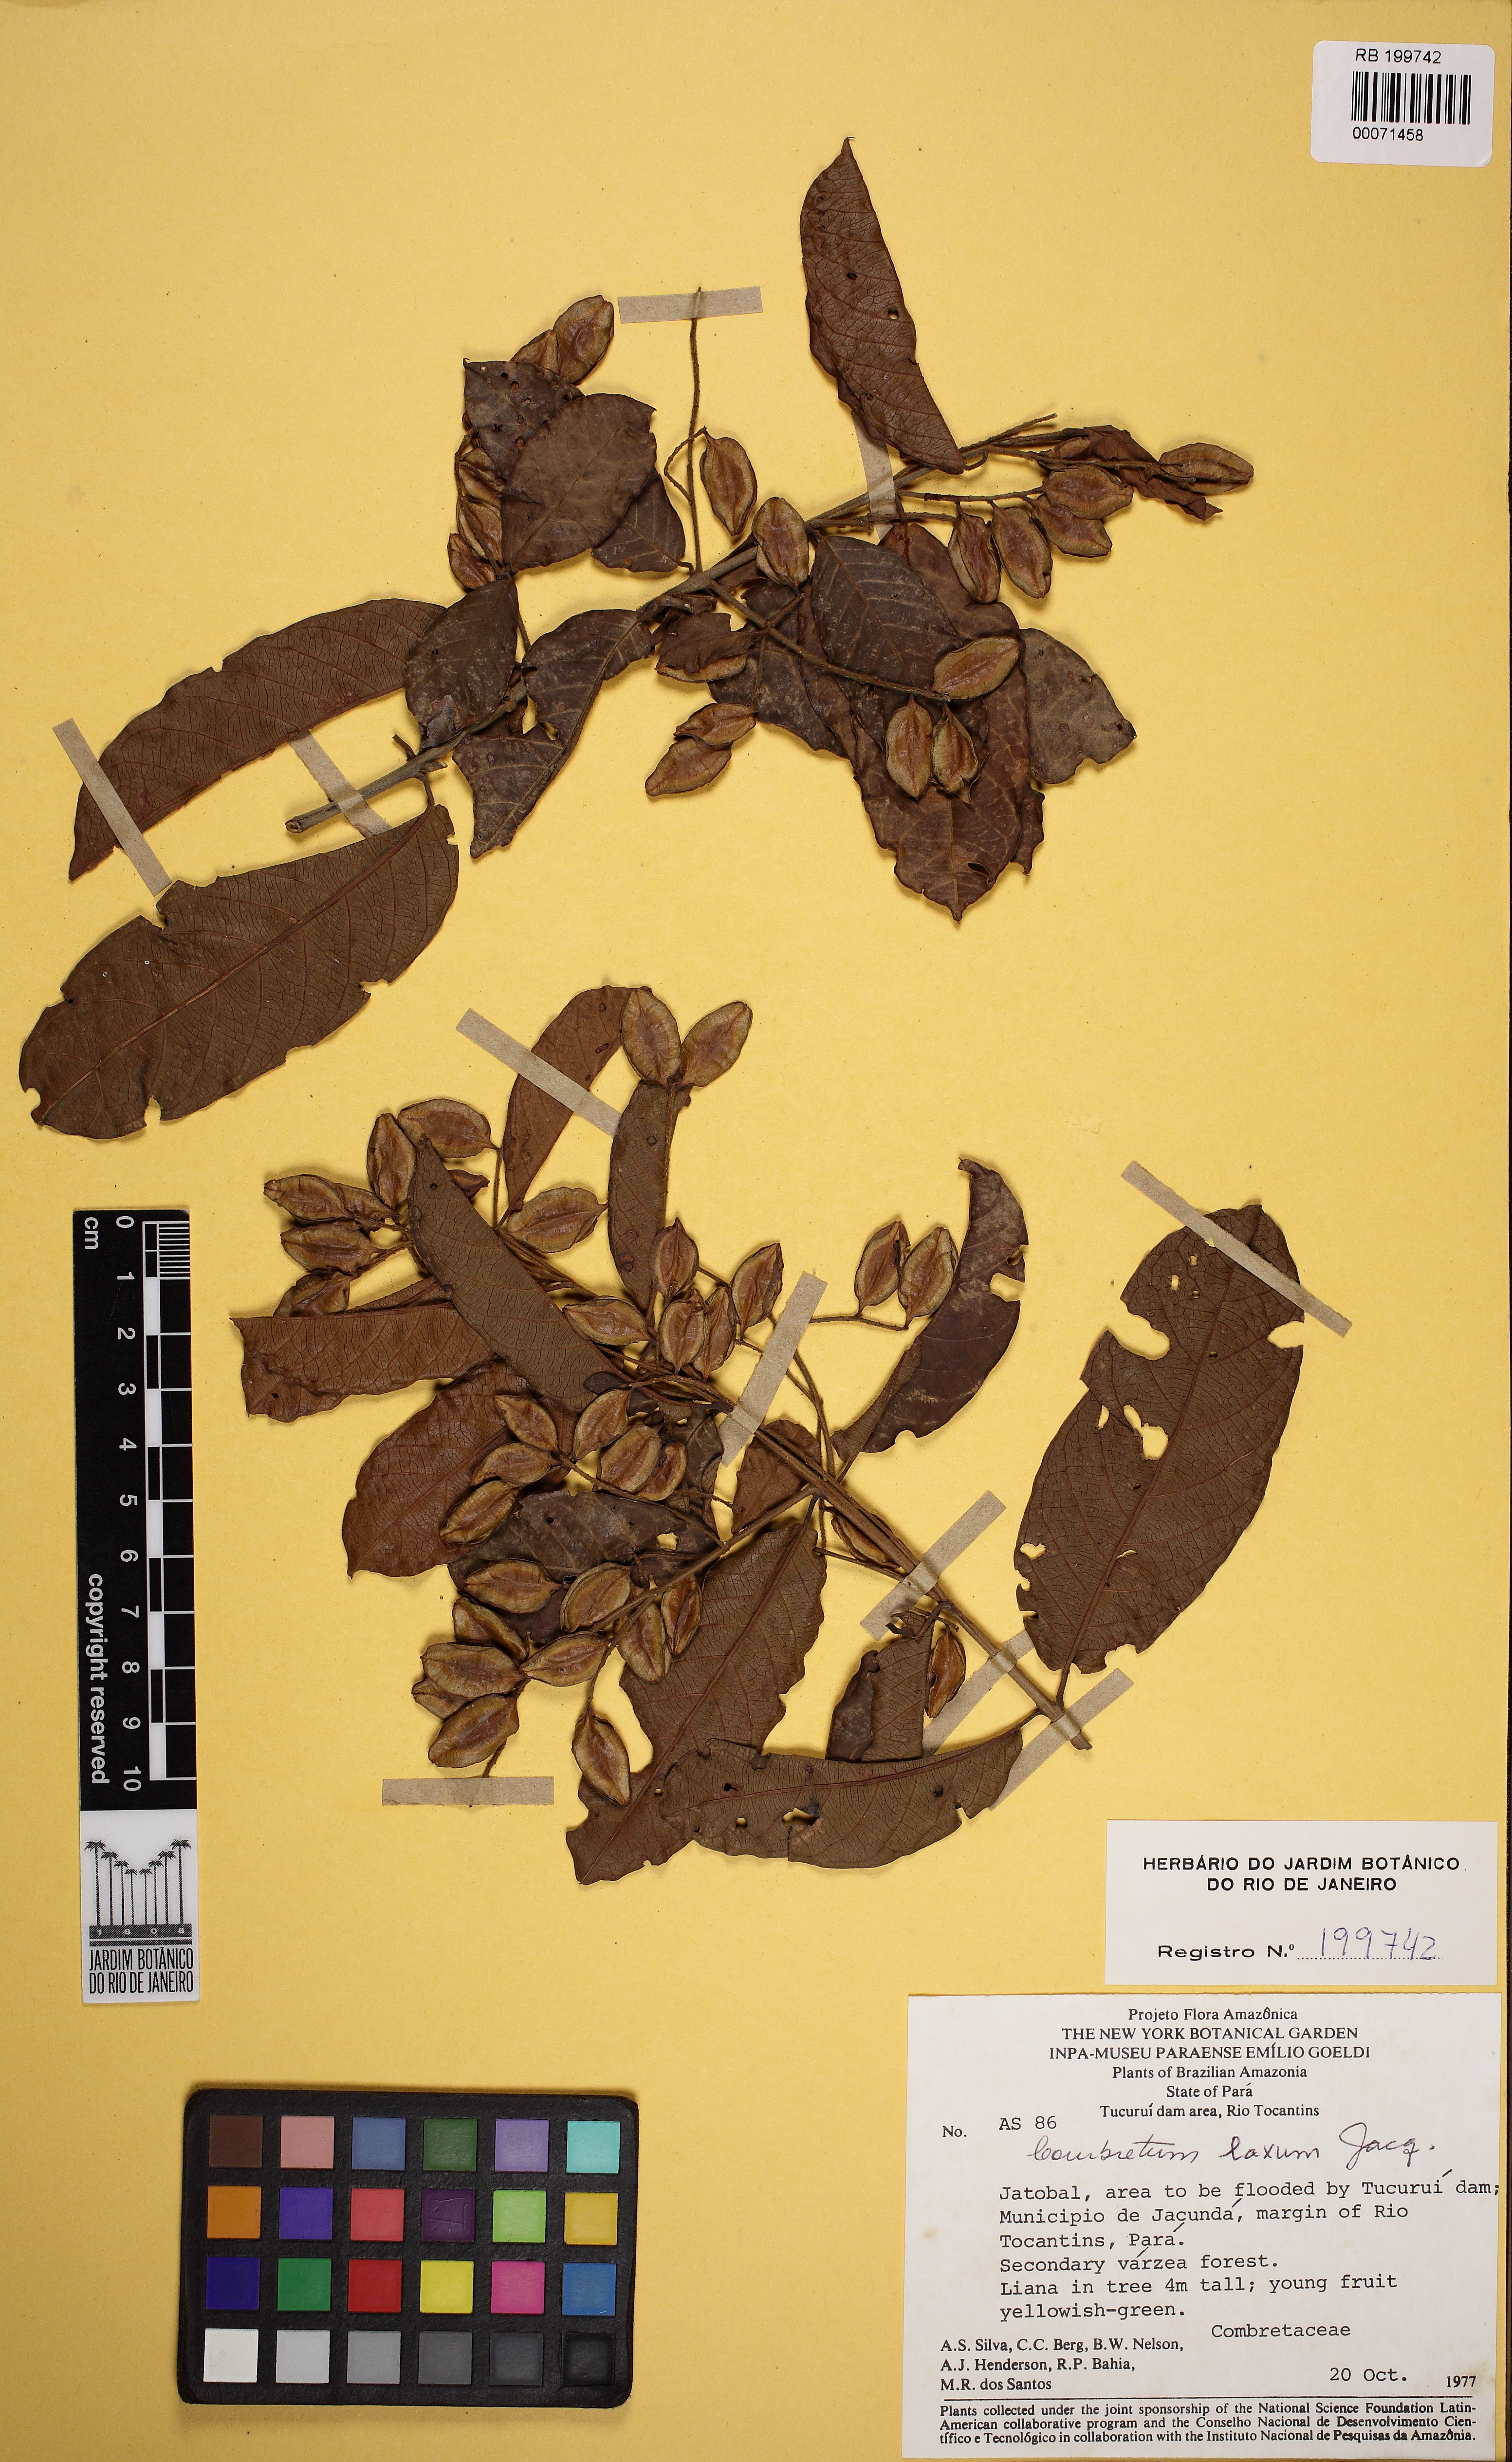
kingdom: Plantae
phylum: Tracheophyta
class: Magnoliopsida
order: Myrtales
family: Combretaceae
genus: Combretum
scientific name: Combretum laxum
